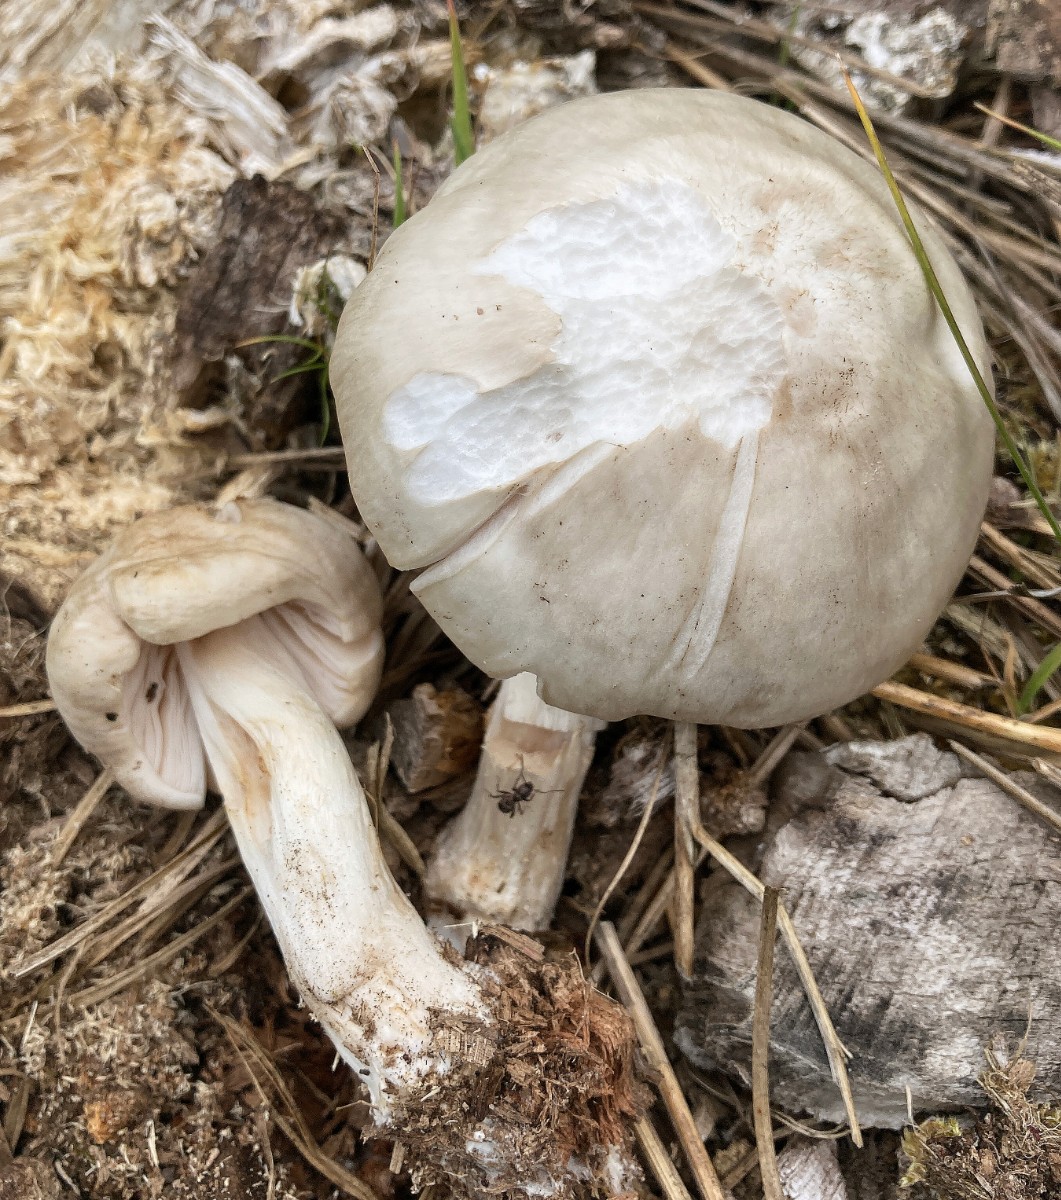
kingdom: Fungi
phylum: Basidiomycota
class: Agaricomycetes
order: Agaricales
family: Pluteaceae
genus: Pluteus
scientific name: Pluteus pellitus
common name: bleg skærmhat
